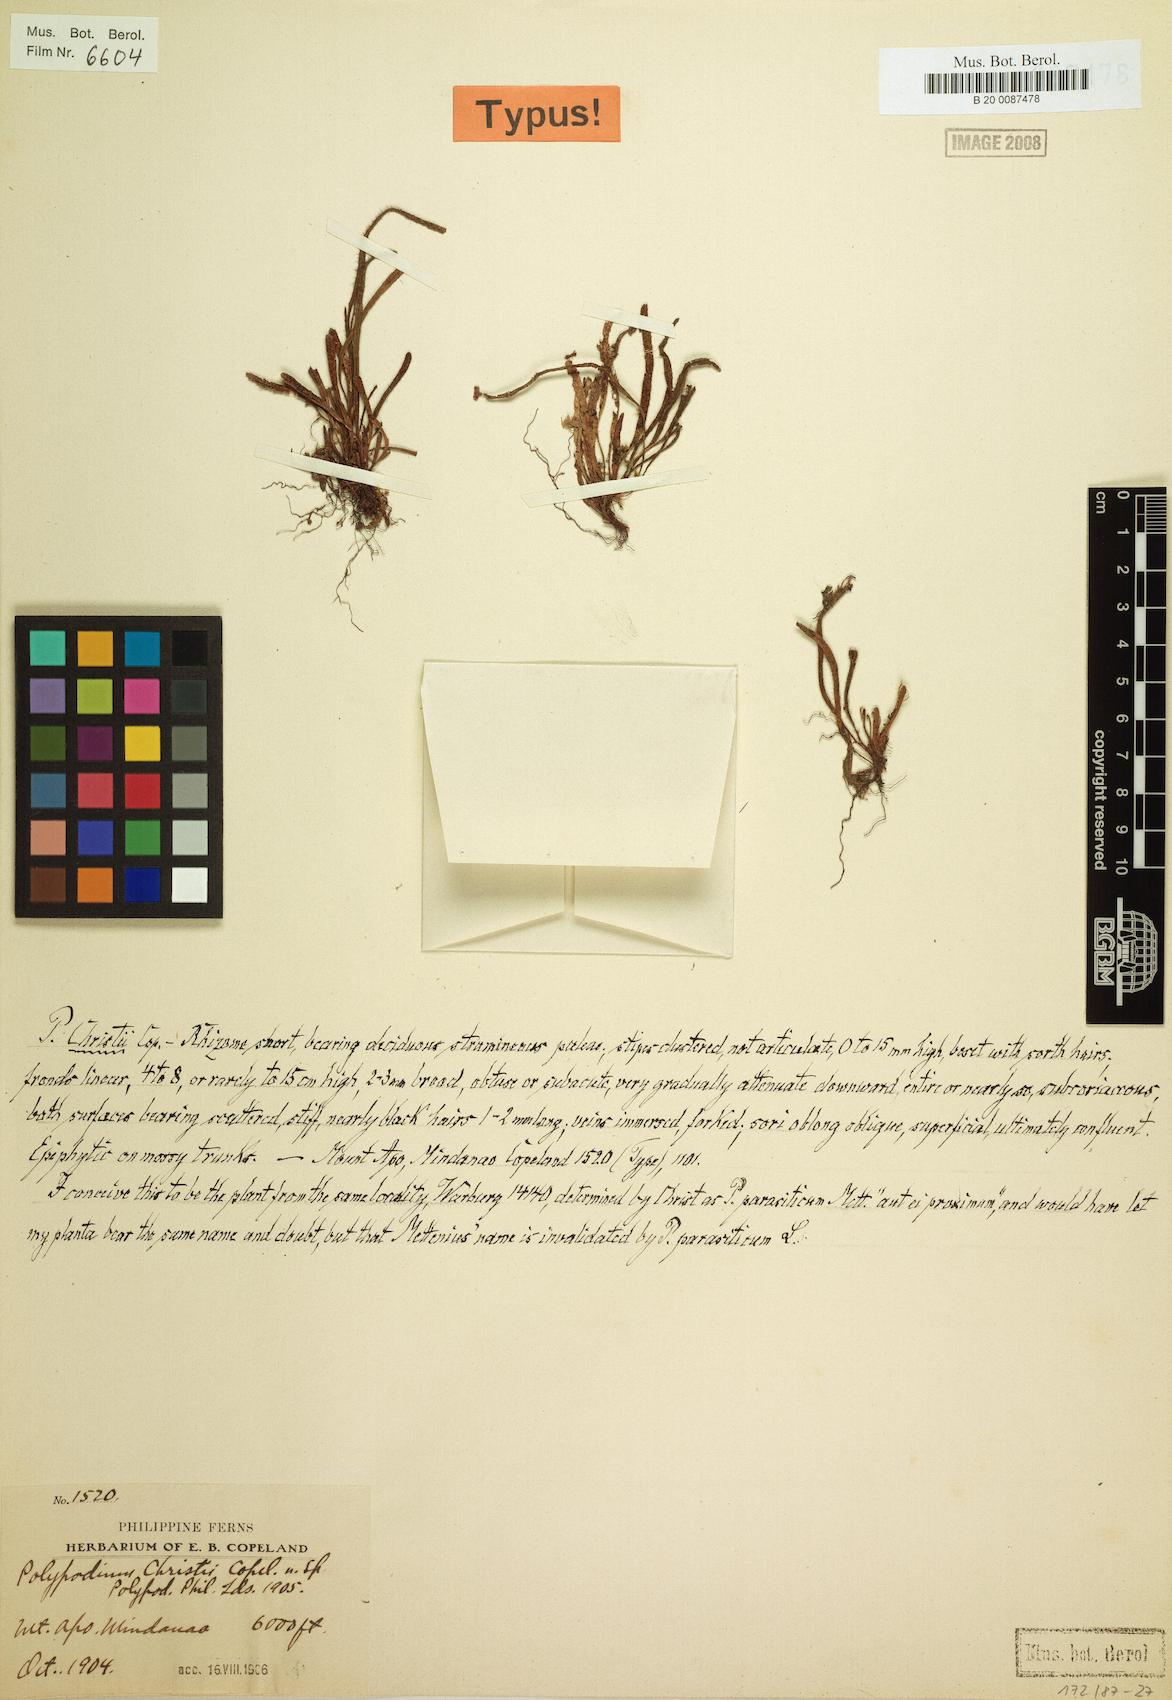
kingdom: Plantae
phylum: Tracheophyta
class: Polypodiopsida
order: Polypodiales
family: Polypodiaceae
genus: Oreogrammitis
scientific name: Oreogrammitis jagoriana
